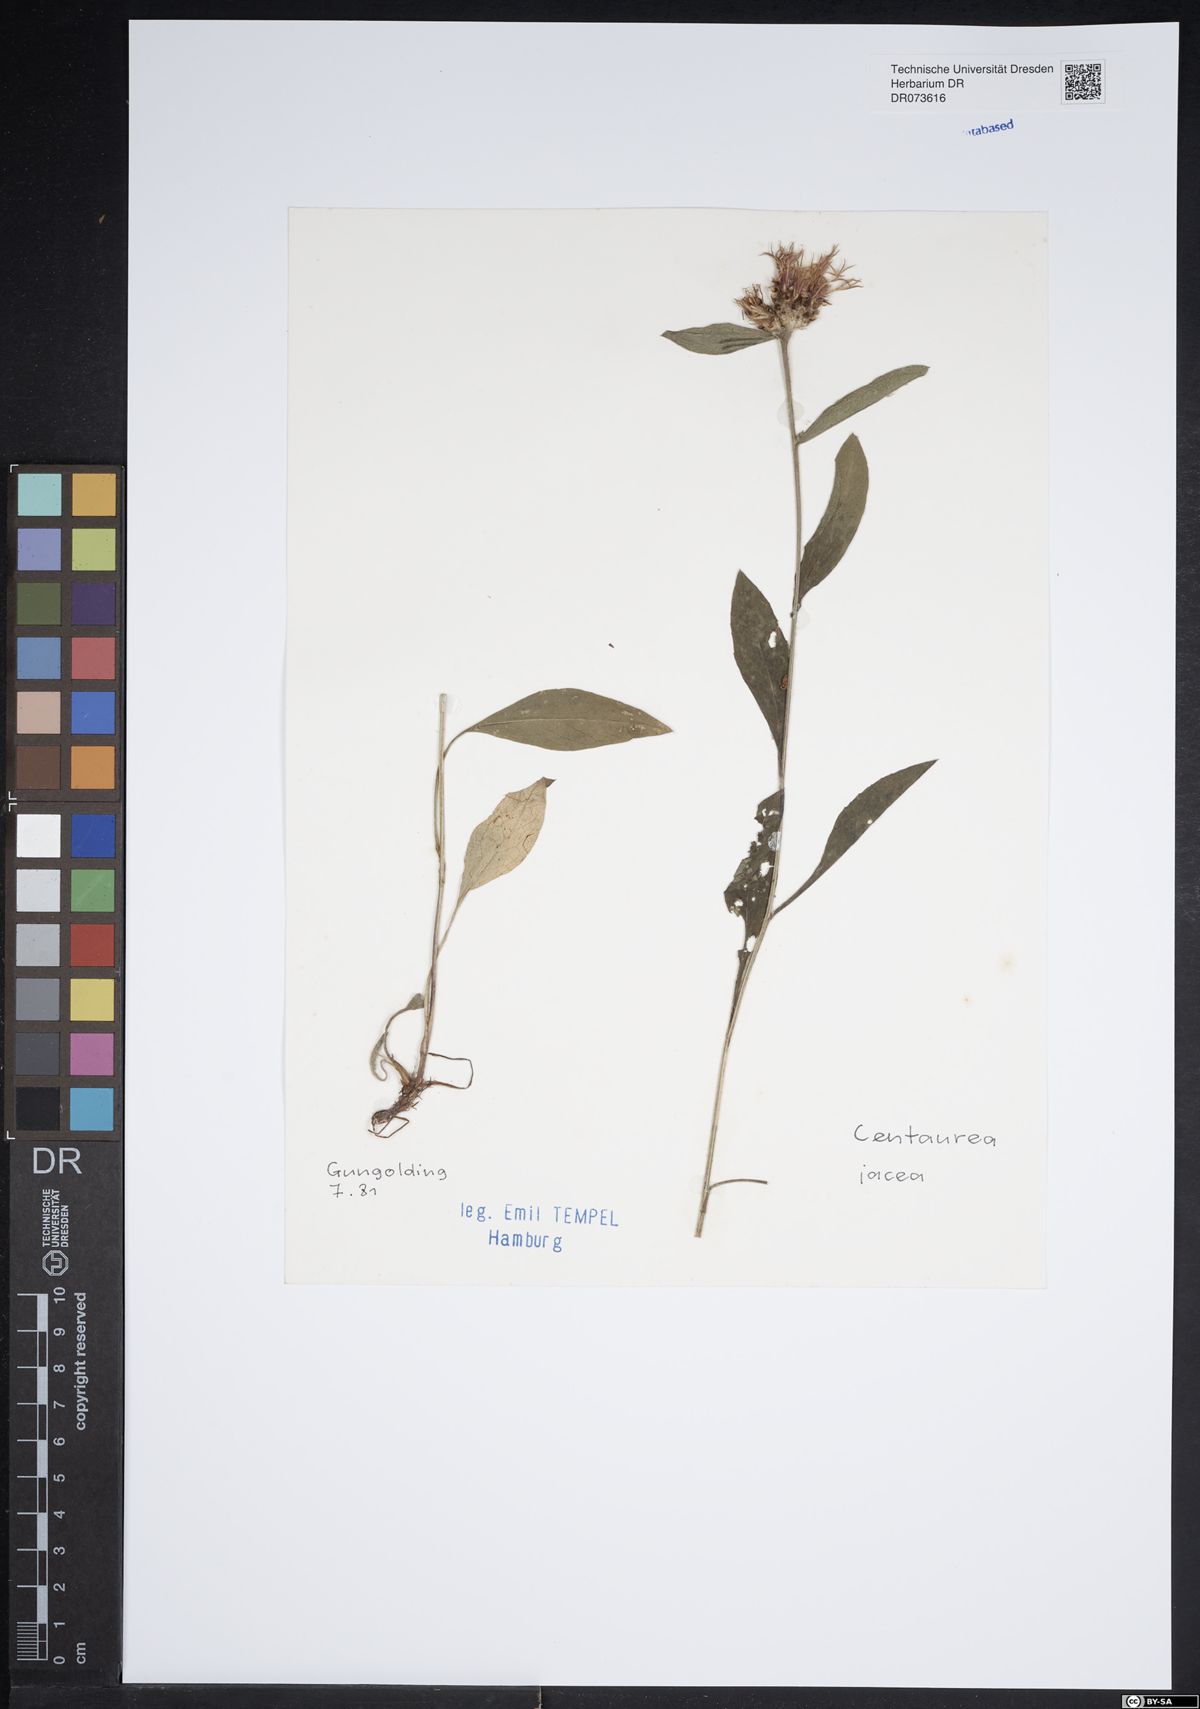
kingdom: Plantae
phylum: Tracheophyta
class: Magnoliopsida
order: Asterales
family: Asteraceae
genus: Centaurea
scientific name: Centaurea jacea
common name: Brown knapweed
